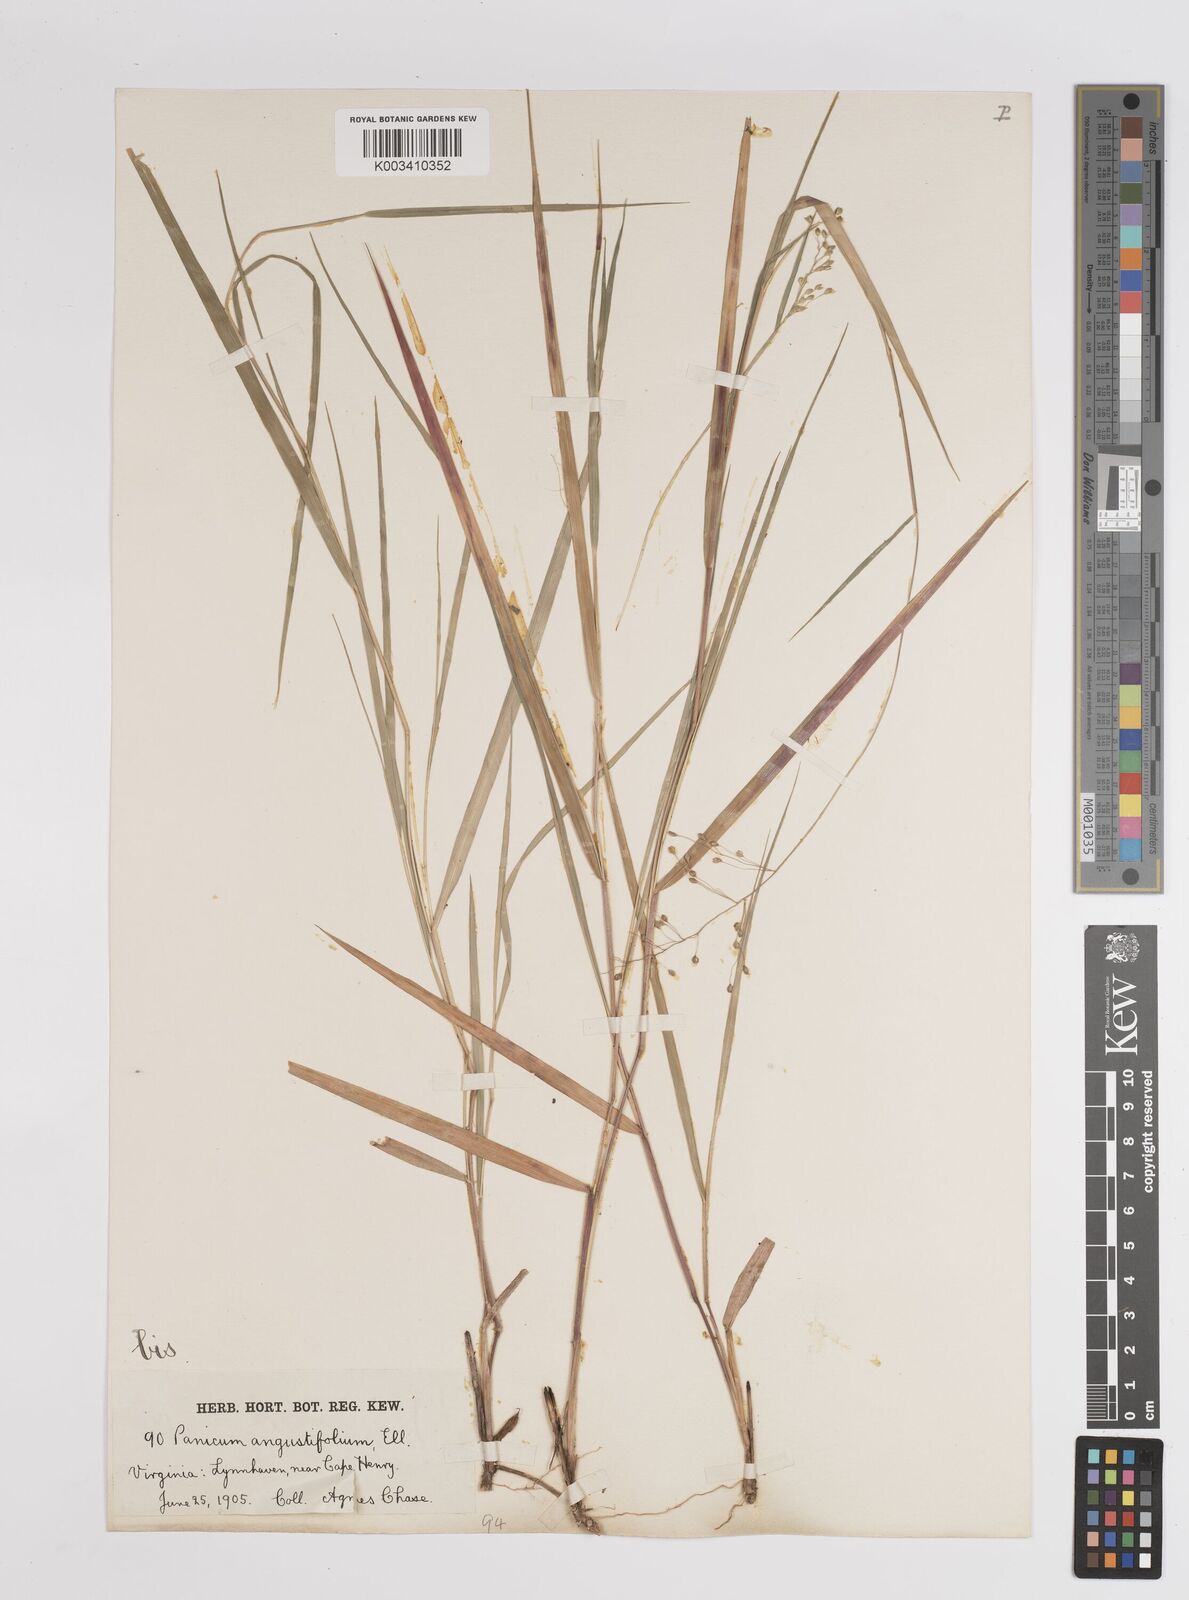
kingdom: Plantae
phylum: Tracheophyta
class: Liliopsida
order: Poales
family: Poaceae
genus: Dichanthelium
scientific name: Dichanthelium angustifolium
